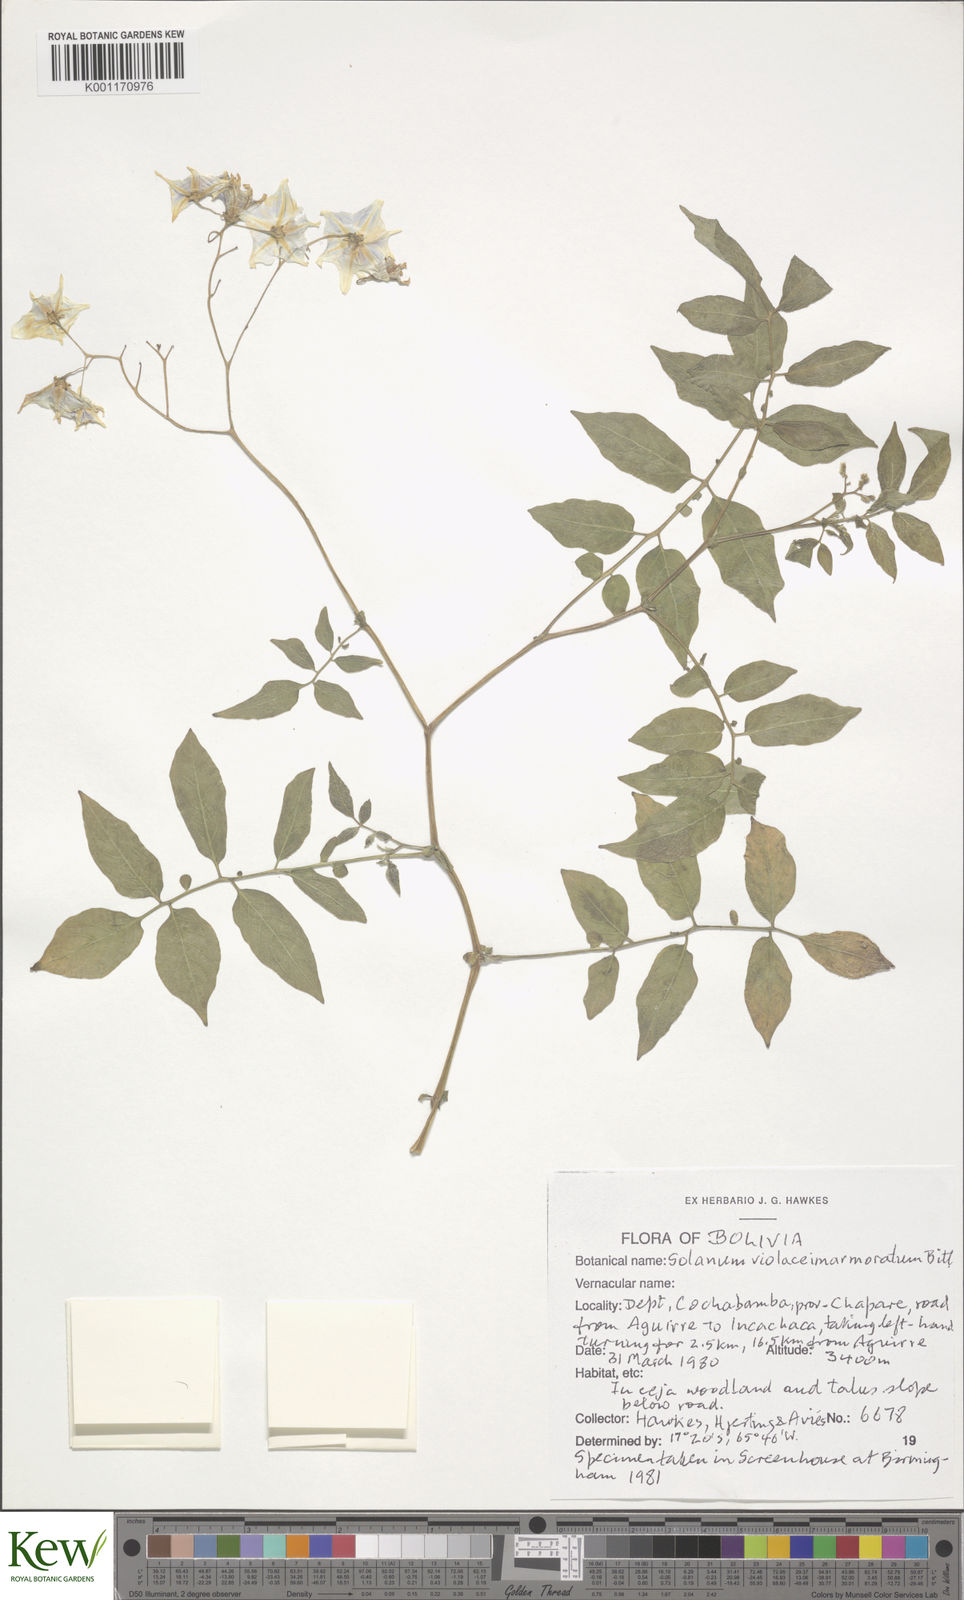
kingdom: Plantae
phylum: Tracheophyta
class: Magnoliopsida
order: Solanales
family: Solanaceae
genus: Solanum
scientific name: Solanum violaceimarmoratum
